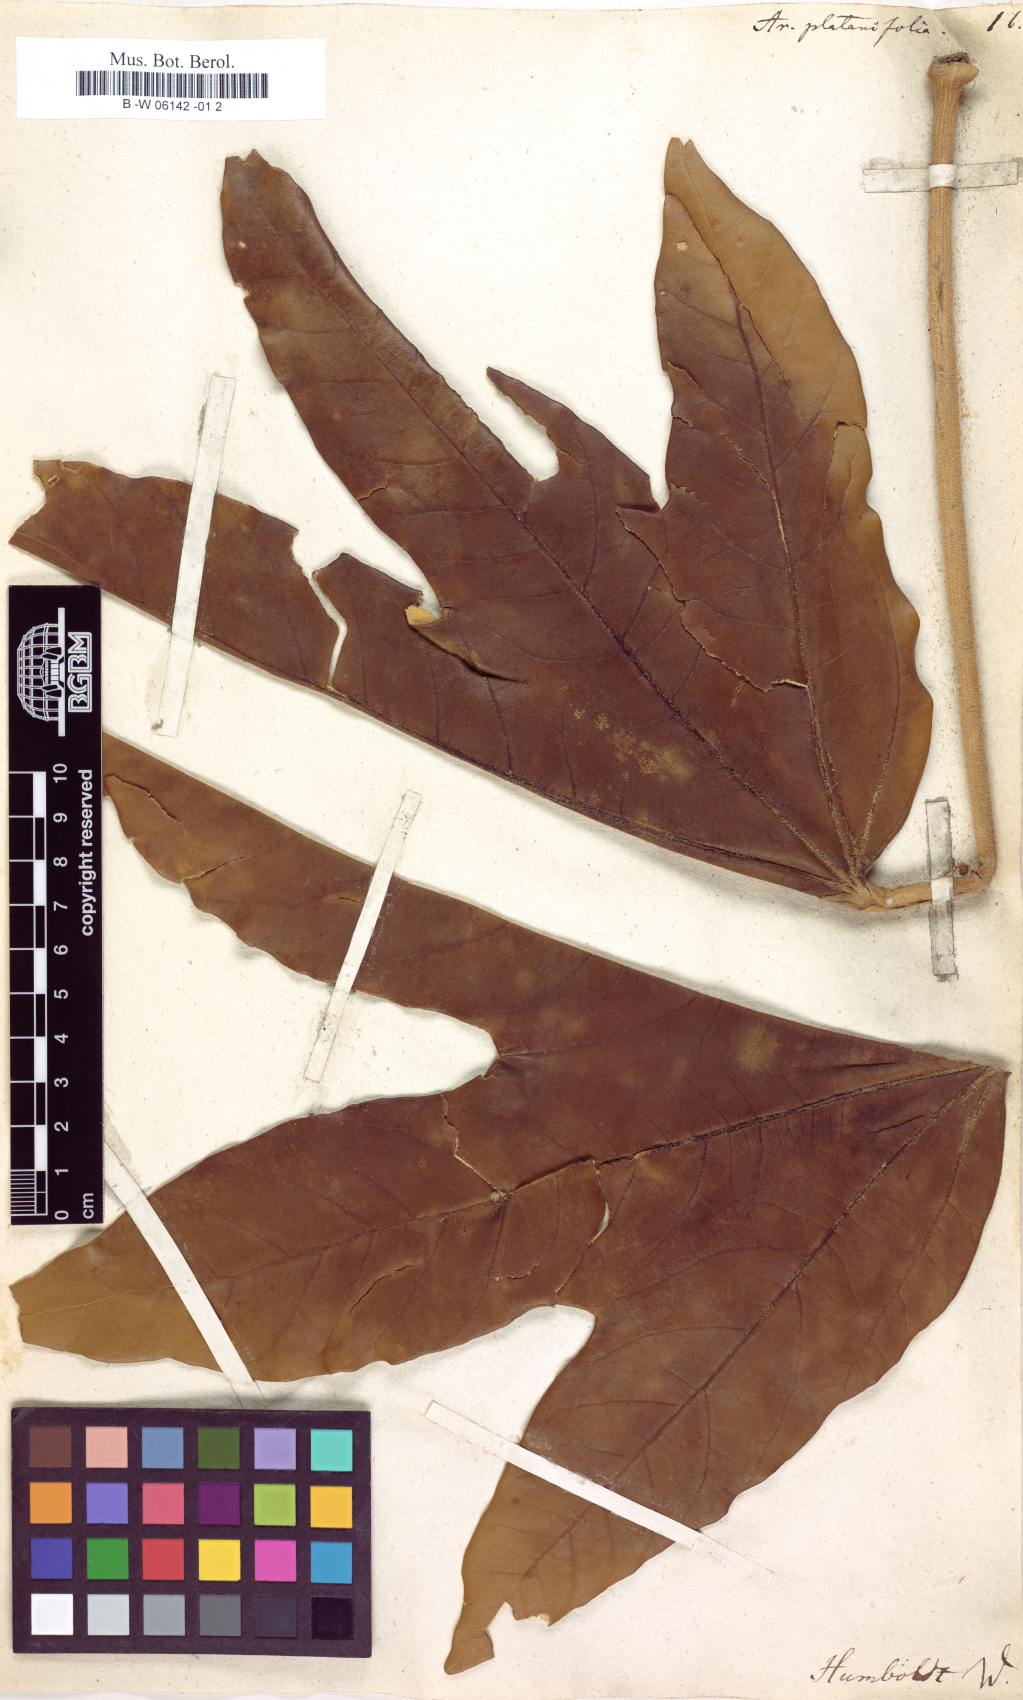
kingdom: Plantae
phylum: Tracheophyta
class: Magnoliopsida
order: Apiales
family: Araliaceae
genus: Aralia
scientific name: Aralia platanifolia
